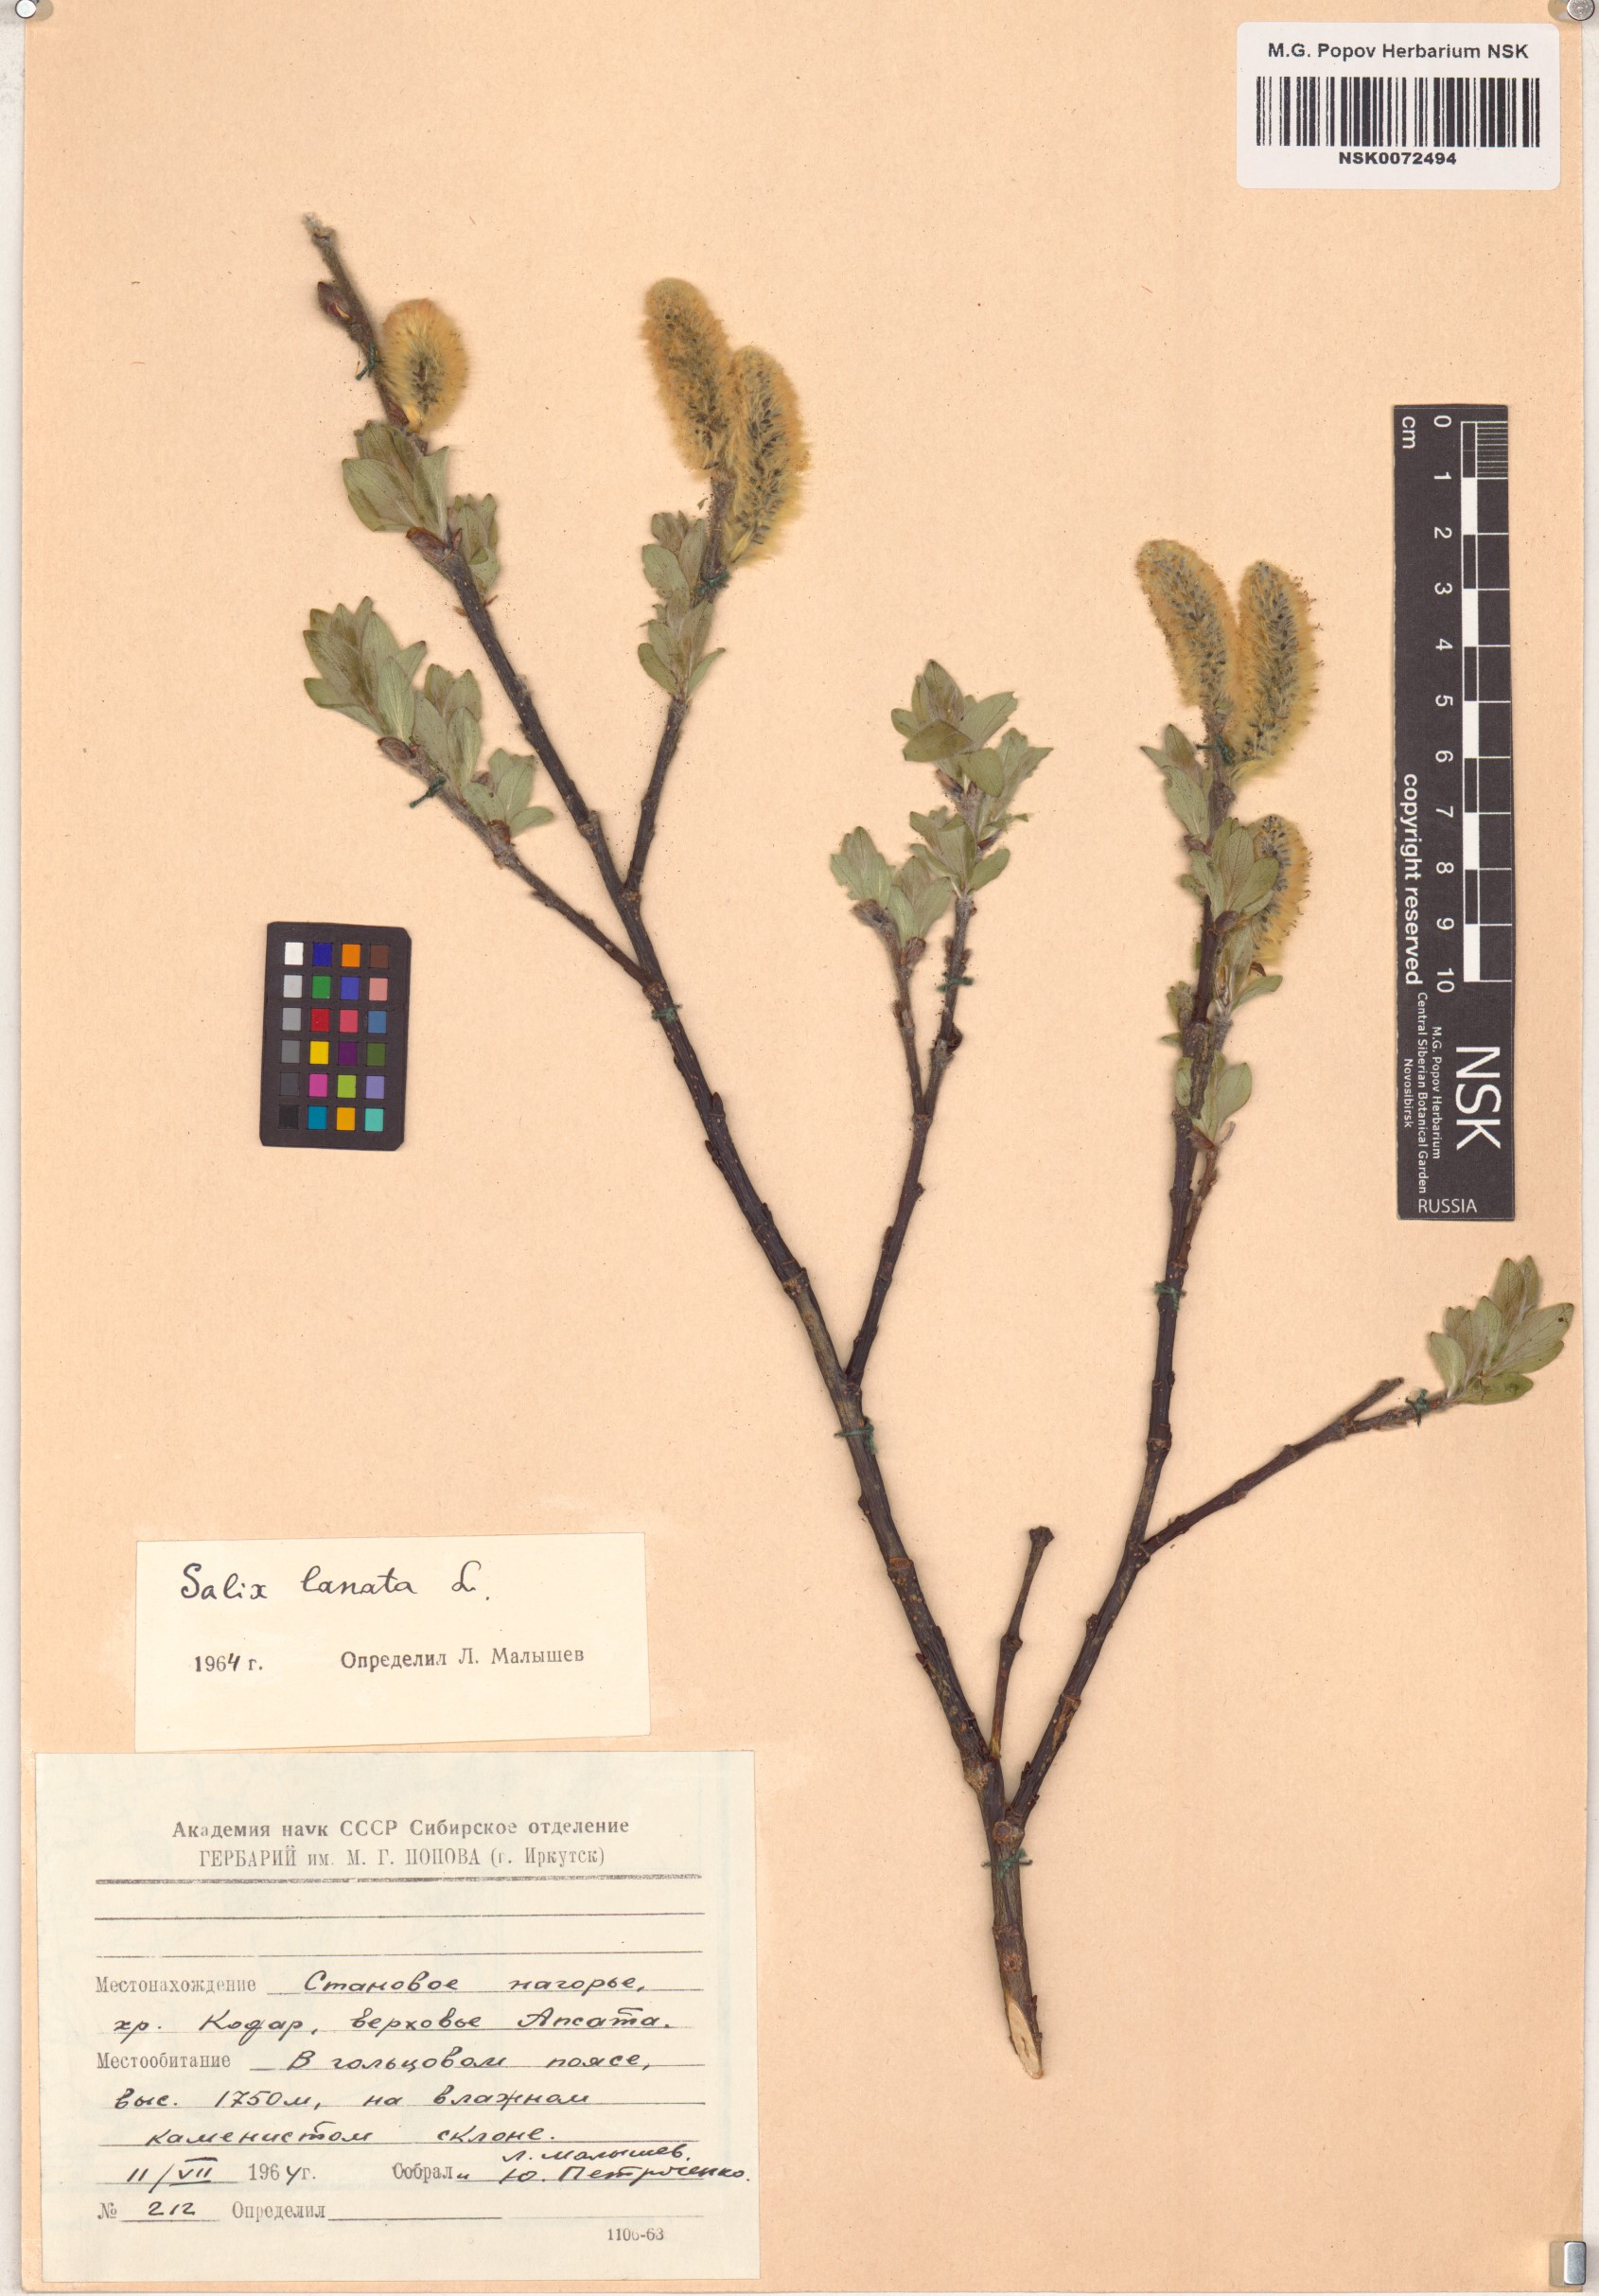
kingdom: Plantae
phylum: Tracheophyta
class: Magnoliopsida
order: Malpighiales
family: Salicaceae
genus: Salix
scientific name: Salix lanata
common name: Woolly willow
